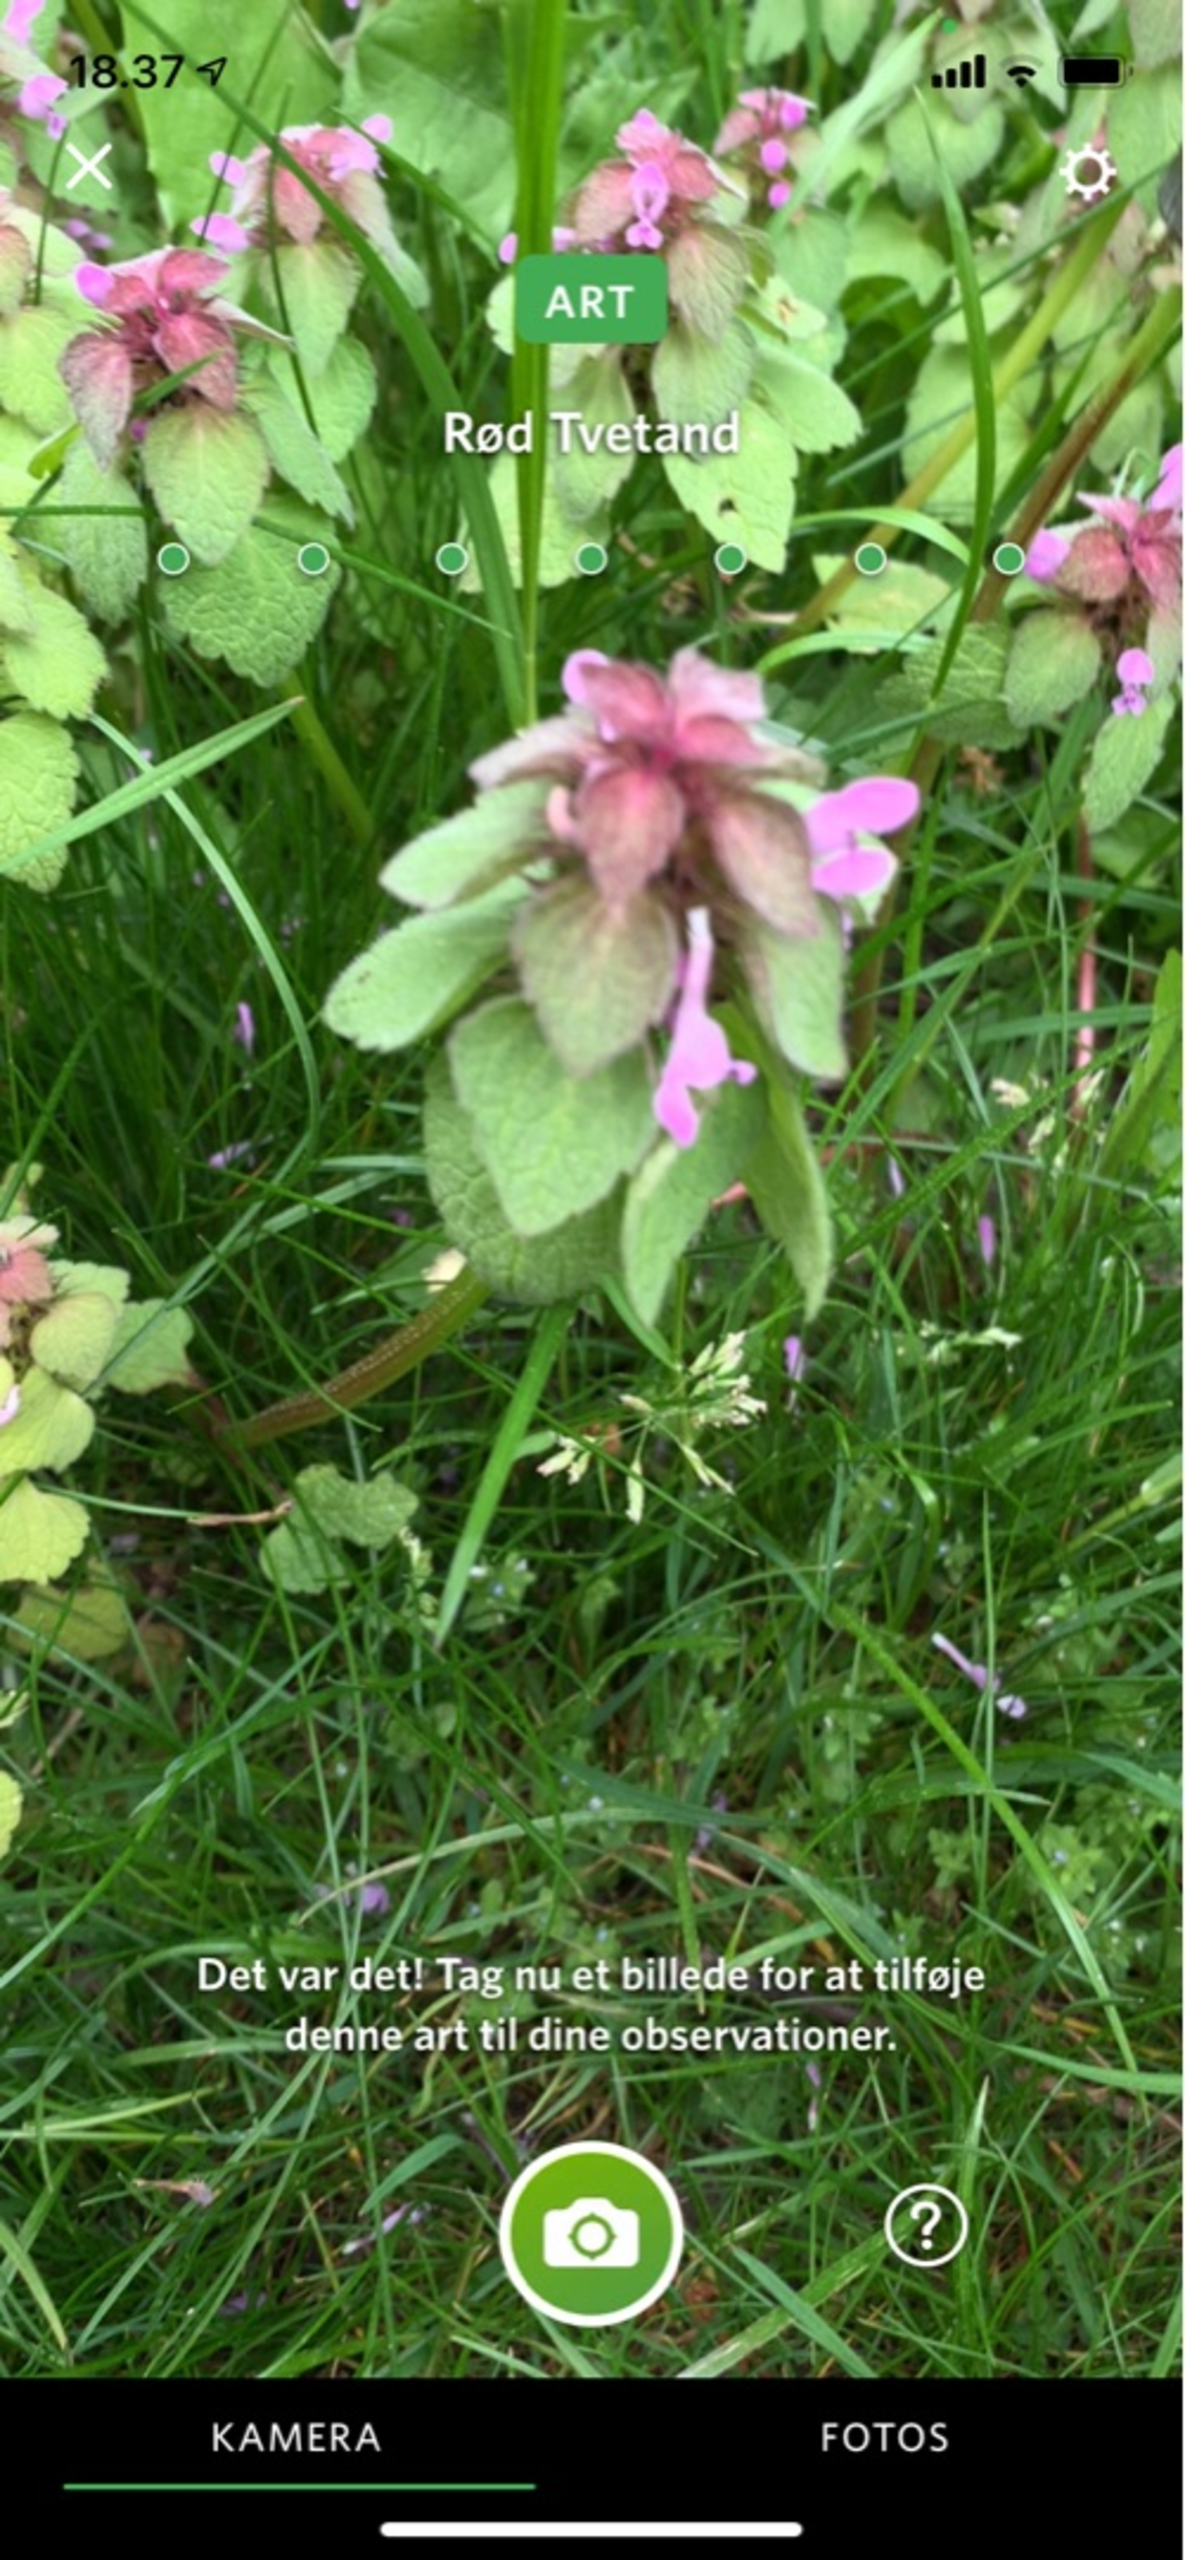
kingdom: Plantae
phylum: Tracheophyta
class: Magnoliopsida
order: Lamiales
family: Lamiaceae
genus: Lamium
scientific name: Lamium purpureum
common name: Rød tvetand
